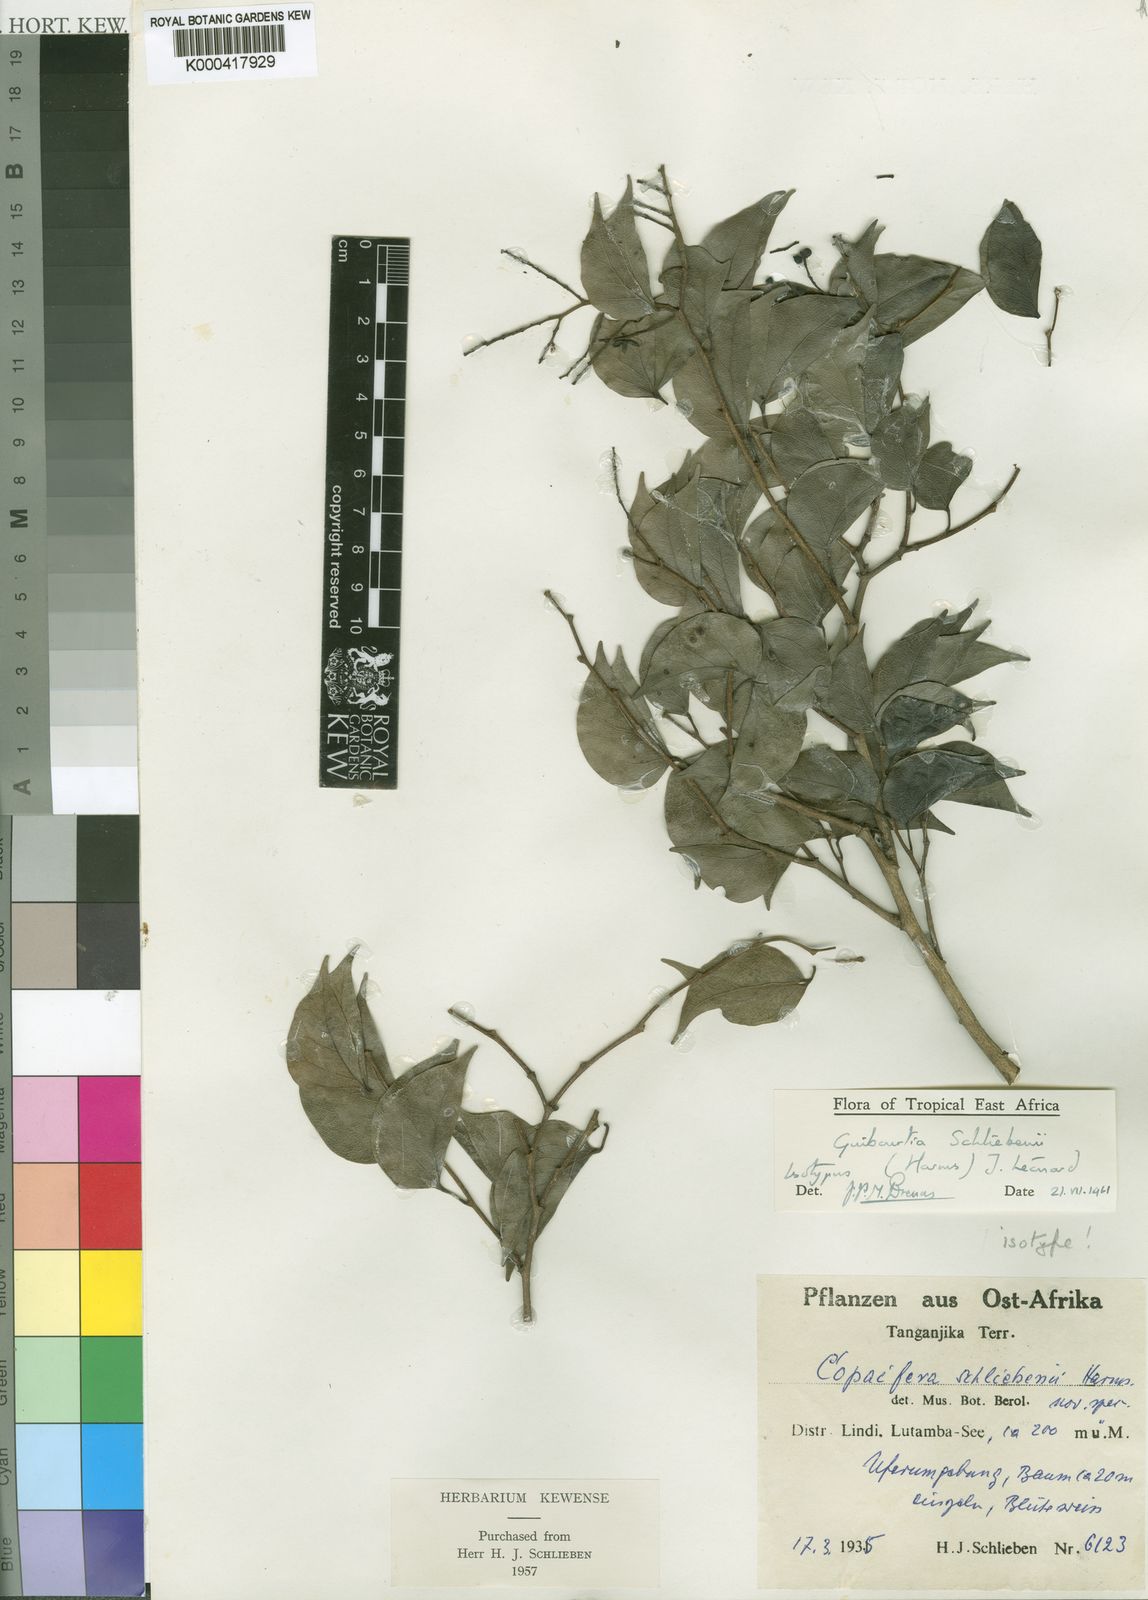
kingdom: Plantae
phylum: Tracheophyta
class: Magnoliopsida
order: Fabales
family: Fabaceae
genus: Guibourtia
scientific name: Guibourtia
